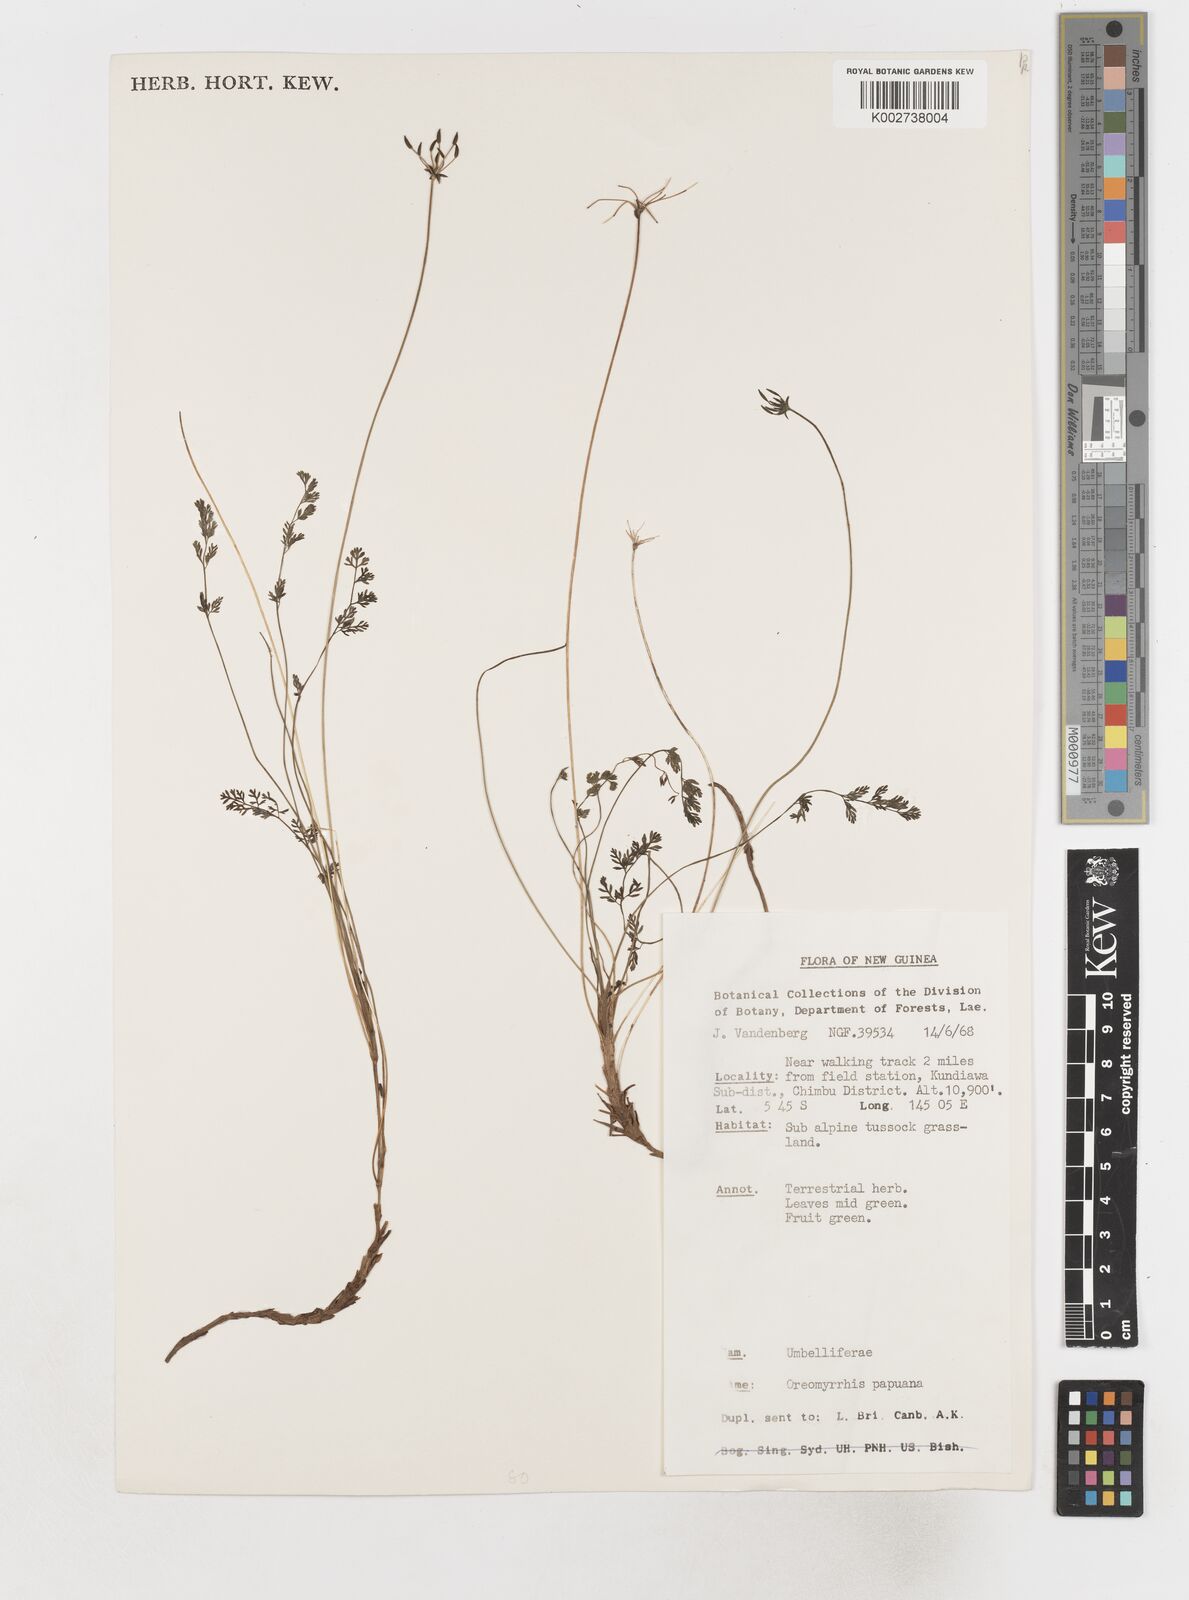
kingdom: Plantae
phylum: Tracheophyta
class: Magnoliopsida
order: Apiales
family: Apiaceae
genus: Chaerophyllum
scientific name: Chaerophyllum papuanum
